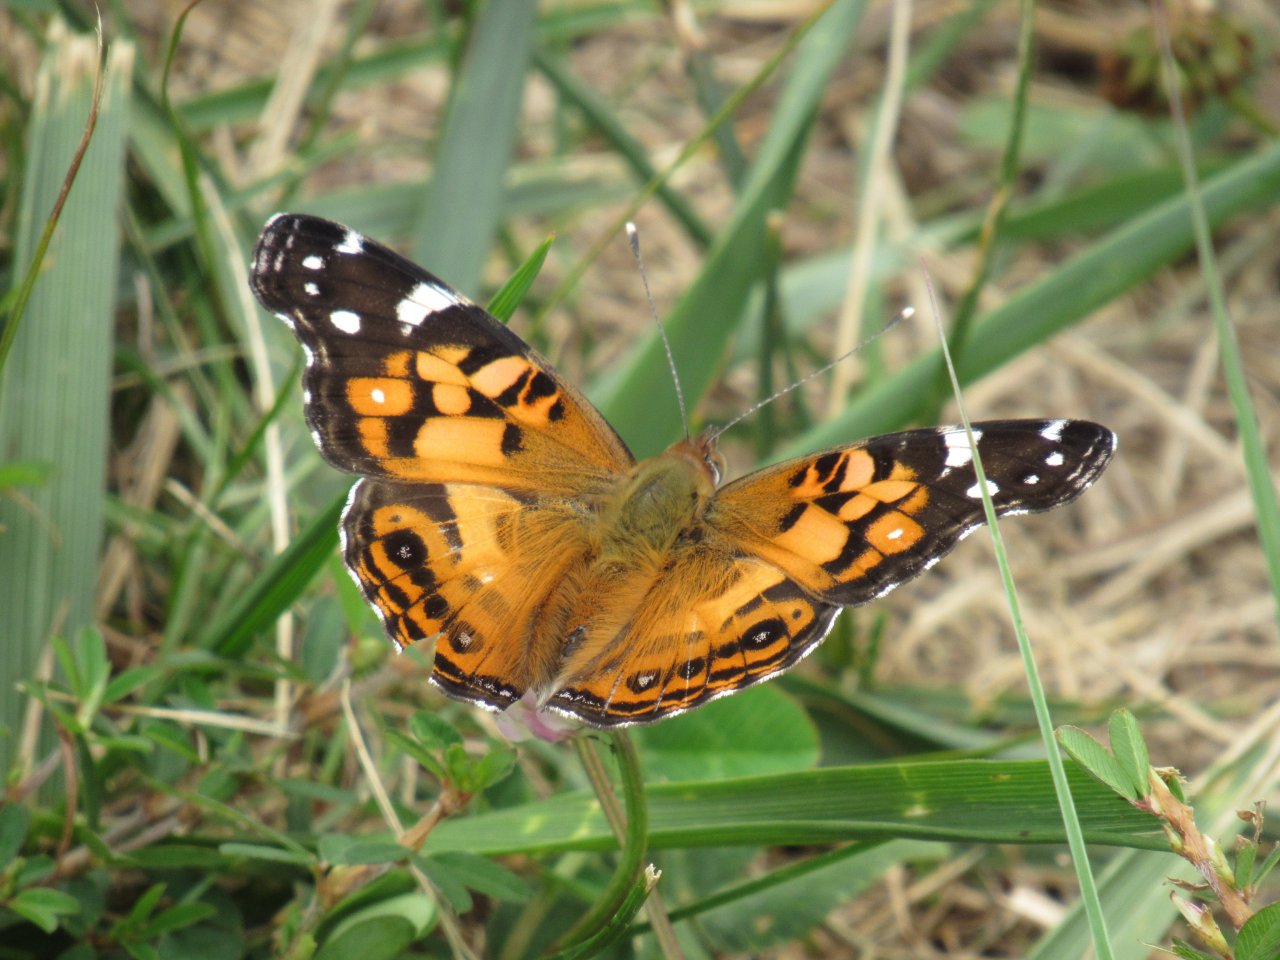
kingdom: Animalia
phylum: Arthropoda
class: Insecta
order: Lepidoptera
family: Nymphalidae
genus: Vanessa
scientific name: Vanessa virginiensis
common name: American Lady
